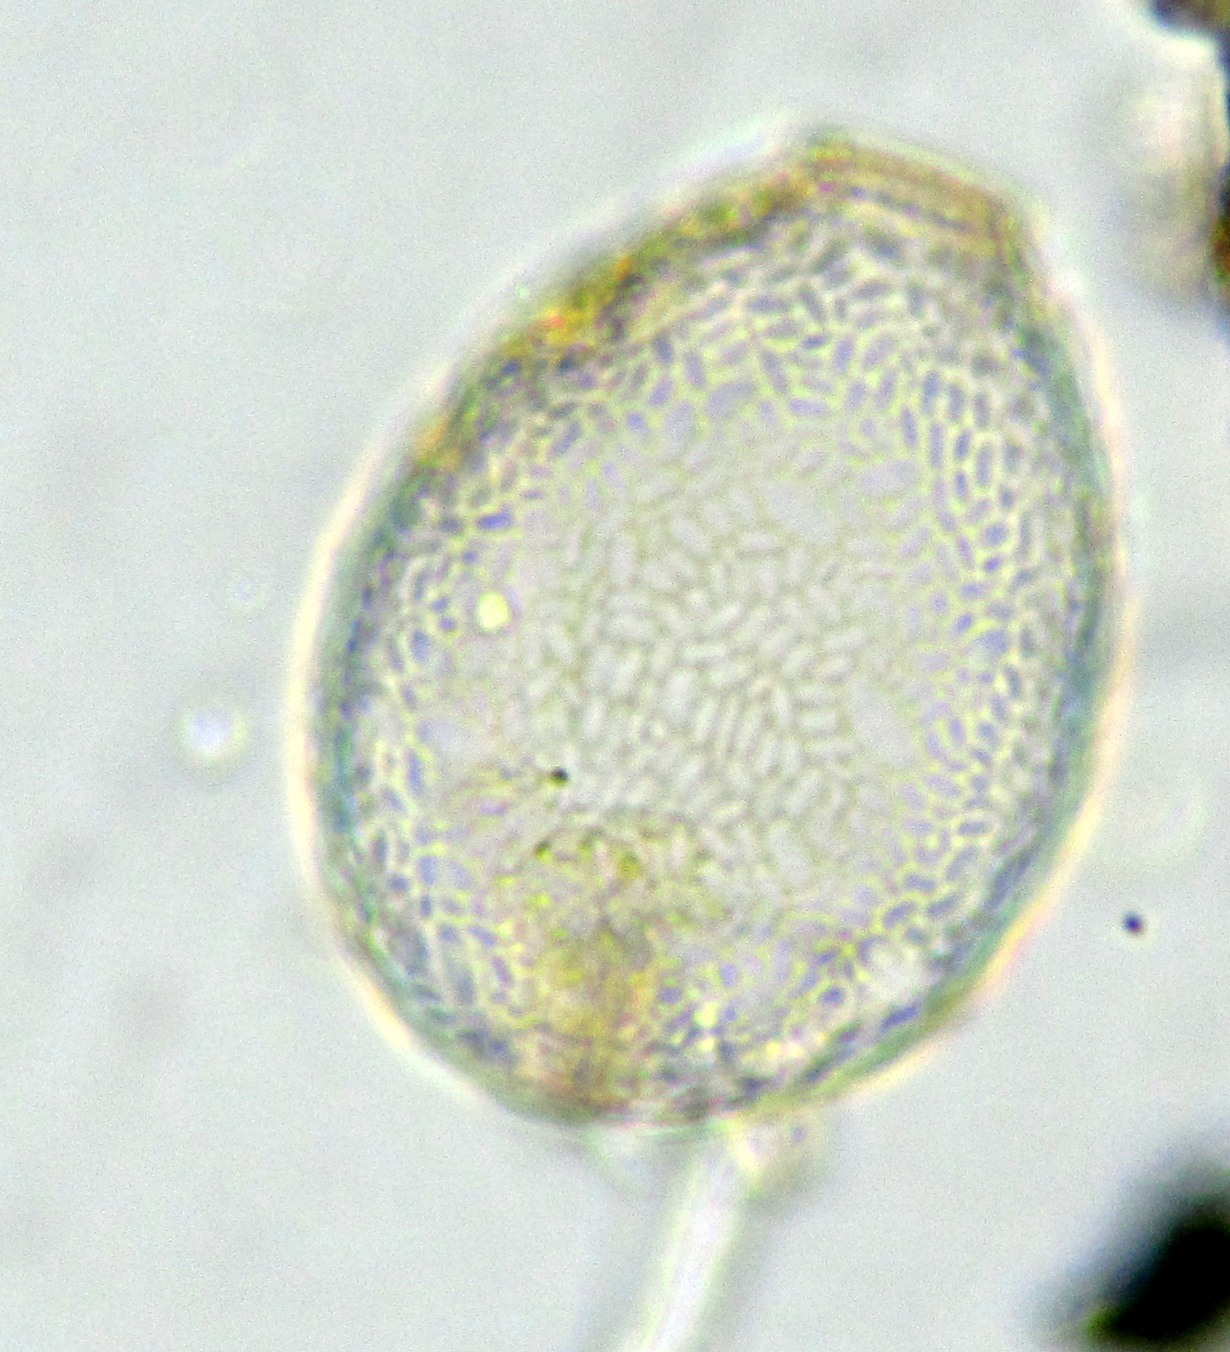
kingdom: Protozoa
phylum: Amoebozoa
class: Lobosa
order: Arcellinida
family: Nebelidae
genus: Nebela
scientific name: Nebela
